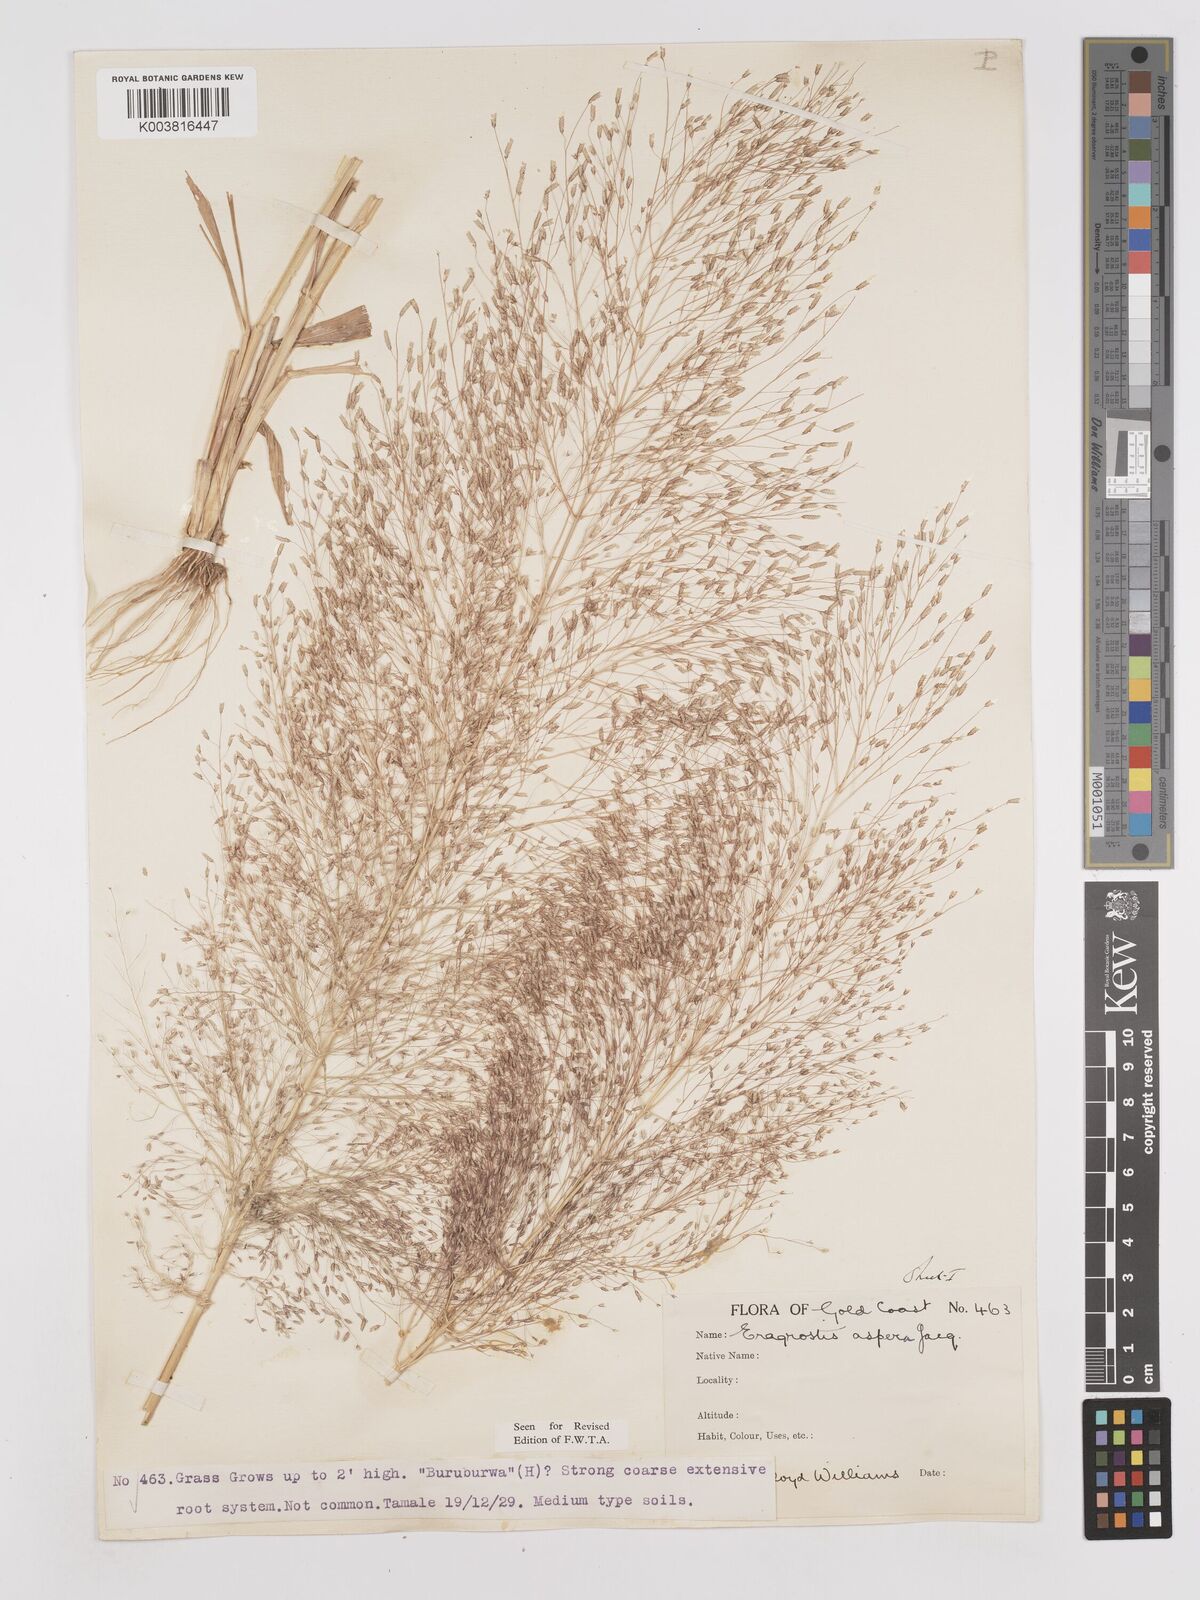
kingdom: Plantae
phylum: Tracheophyta
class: Liliopsida
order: Poales
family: Poaceae
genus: Eragrostis
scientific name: Eragrostis aspera
